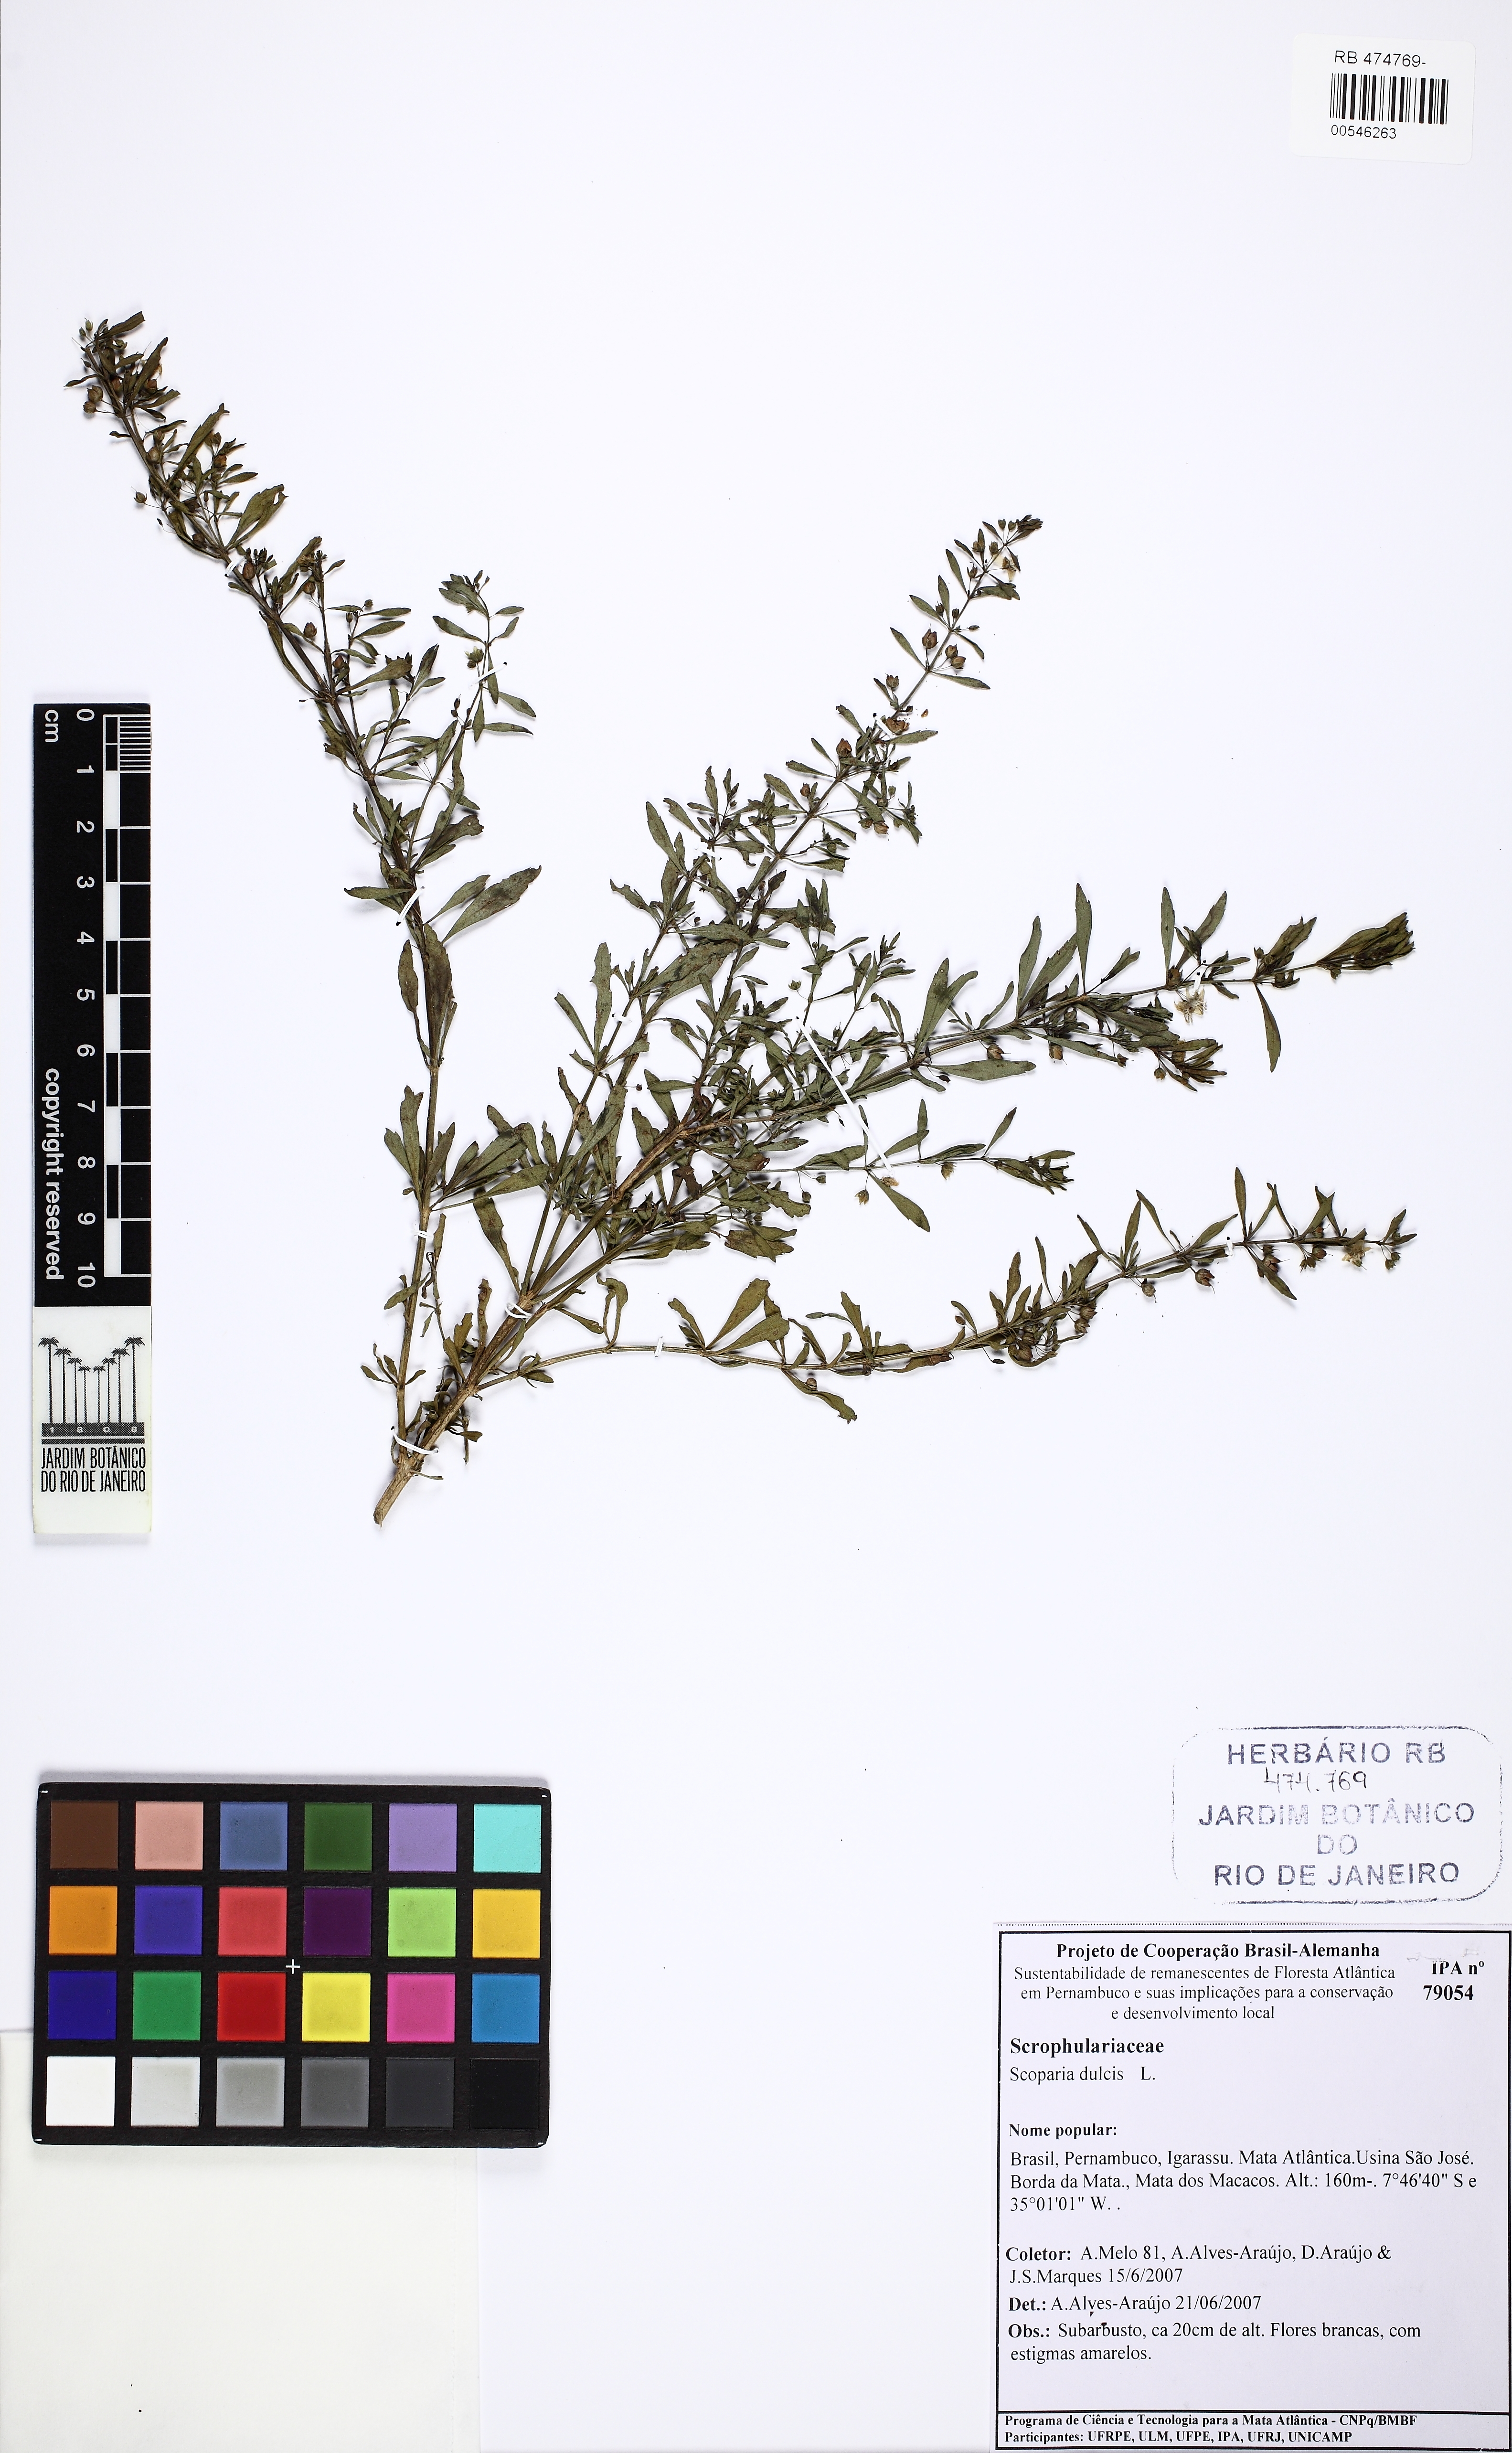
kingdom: Plantae
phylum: Tracheophyta
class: Magnoliopsida
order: Lamiales
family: Plantaginaceae
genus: Scoparia
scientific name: Scoparia dulcis
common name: Scoparia-weed
